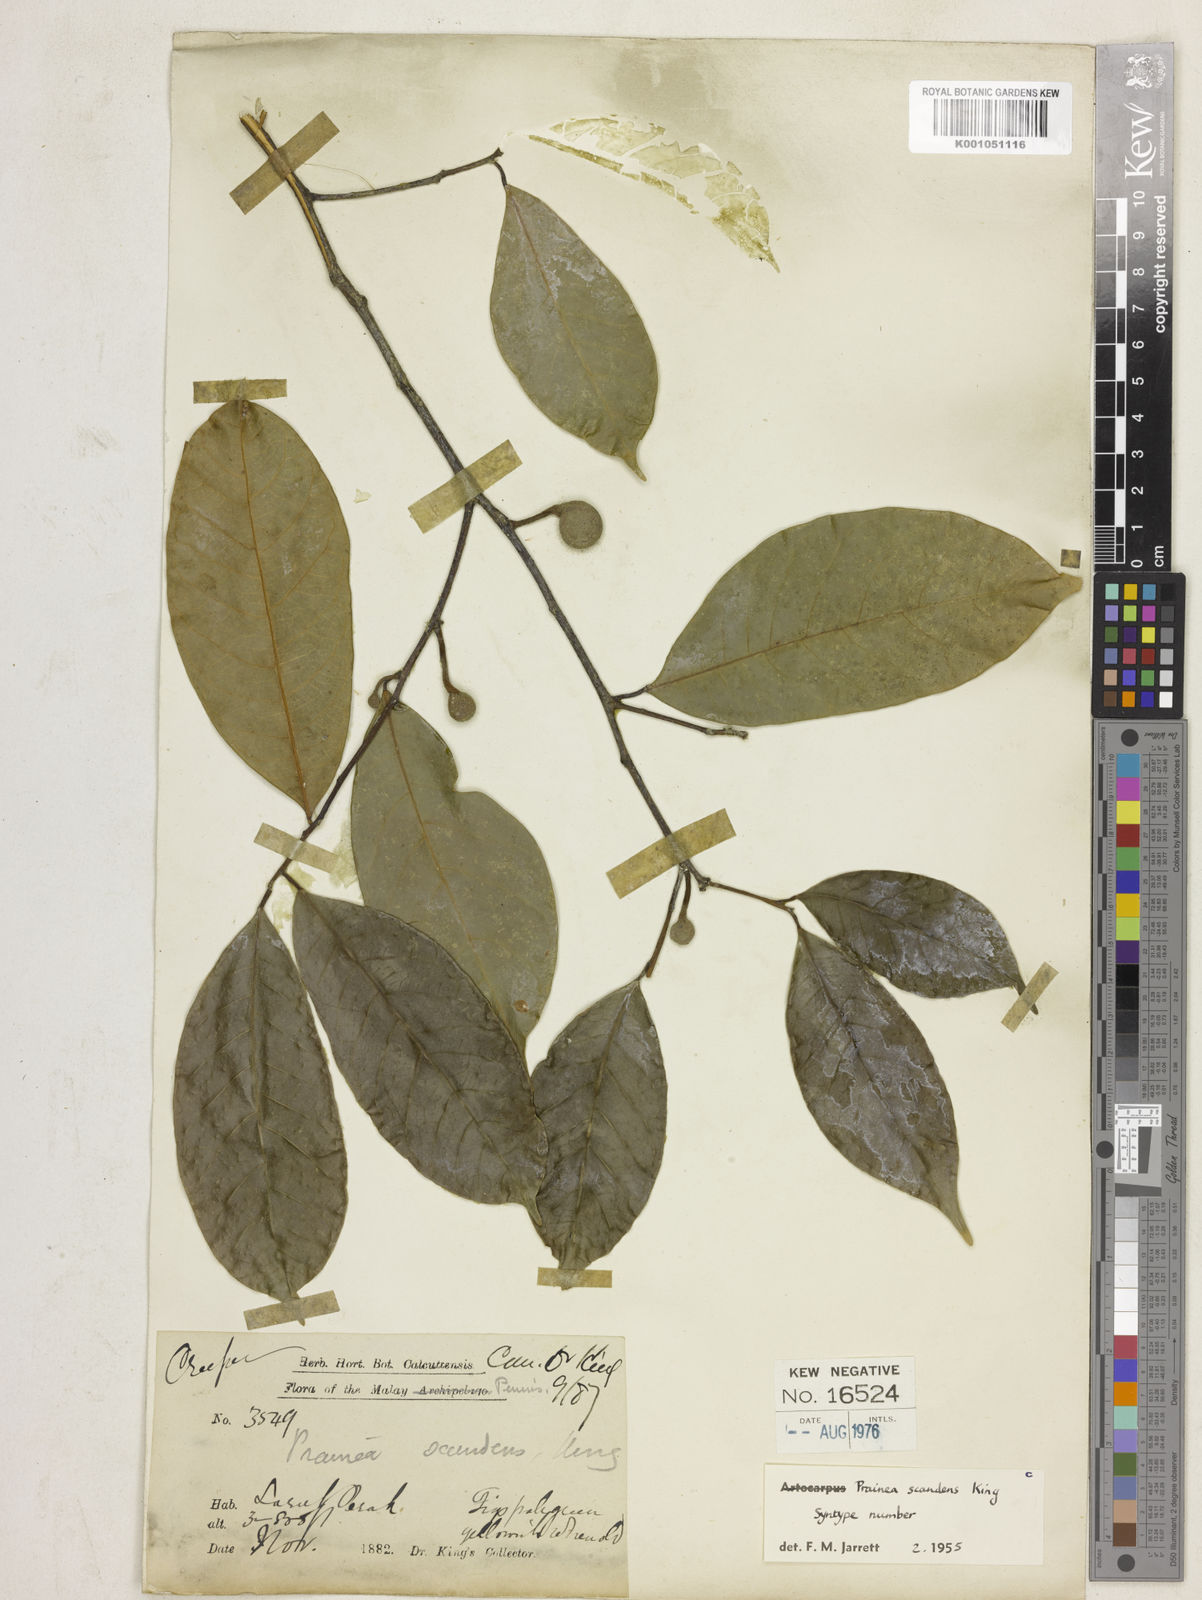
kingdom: Plantae
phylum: Tracheophyta
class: Magnoliopsida
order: Rosales
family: Moraceae
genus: Prainea
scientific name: Prainea scandens
